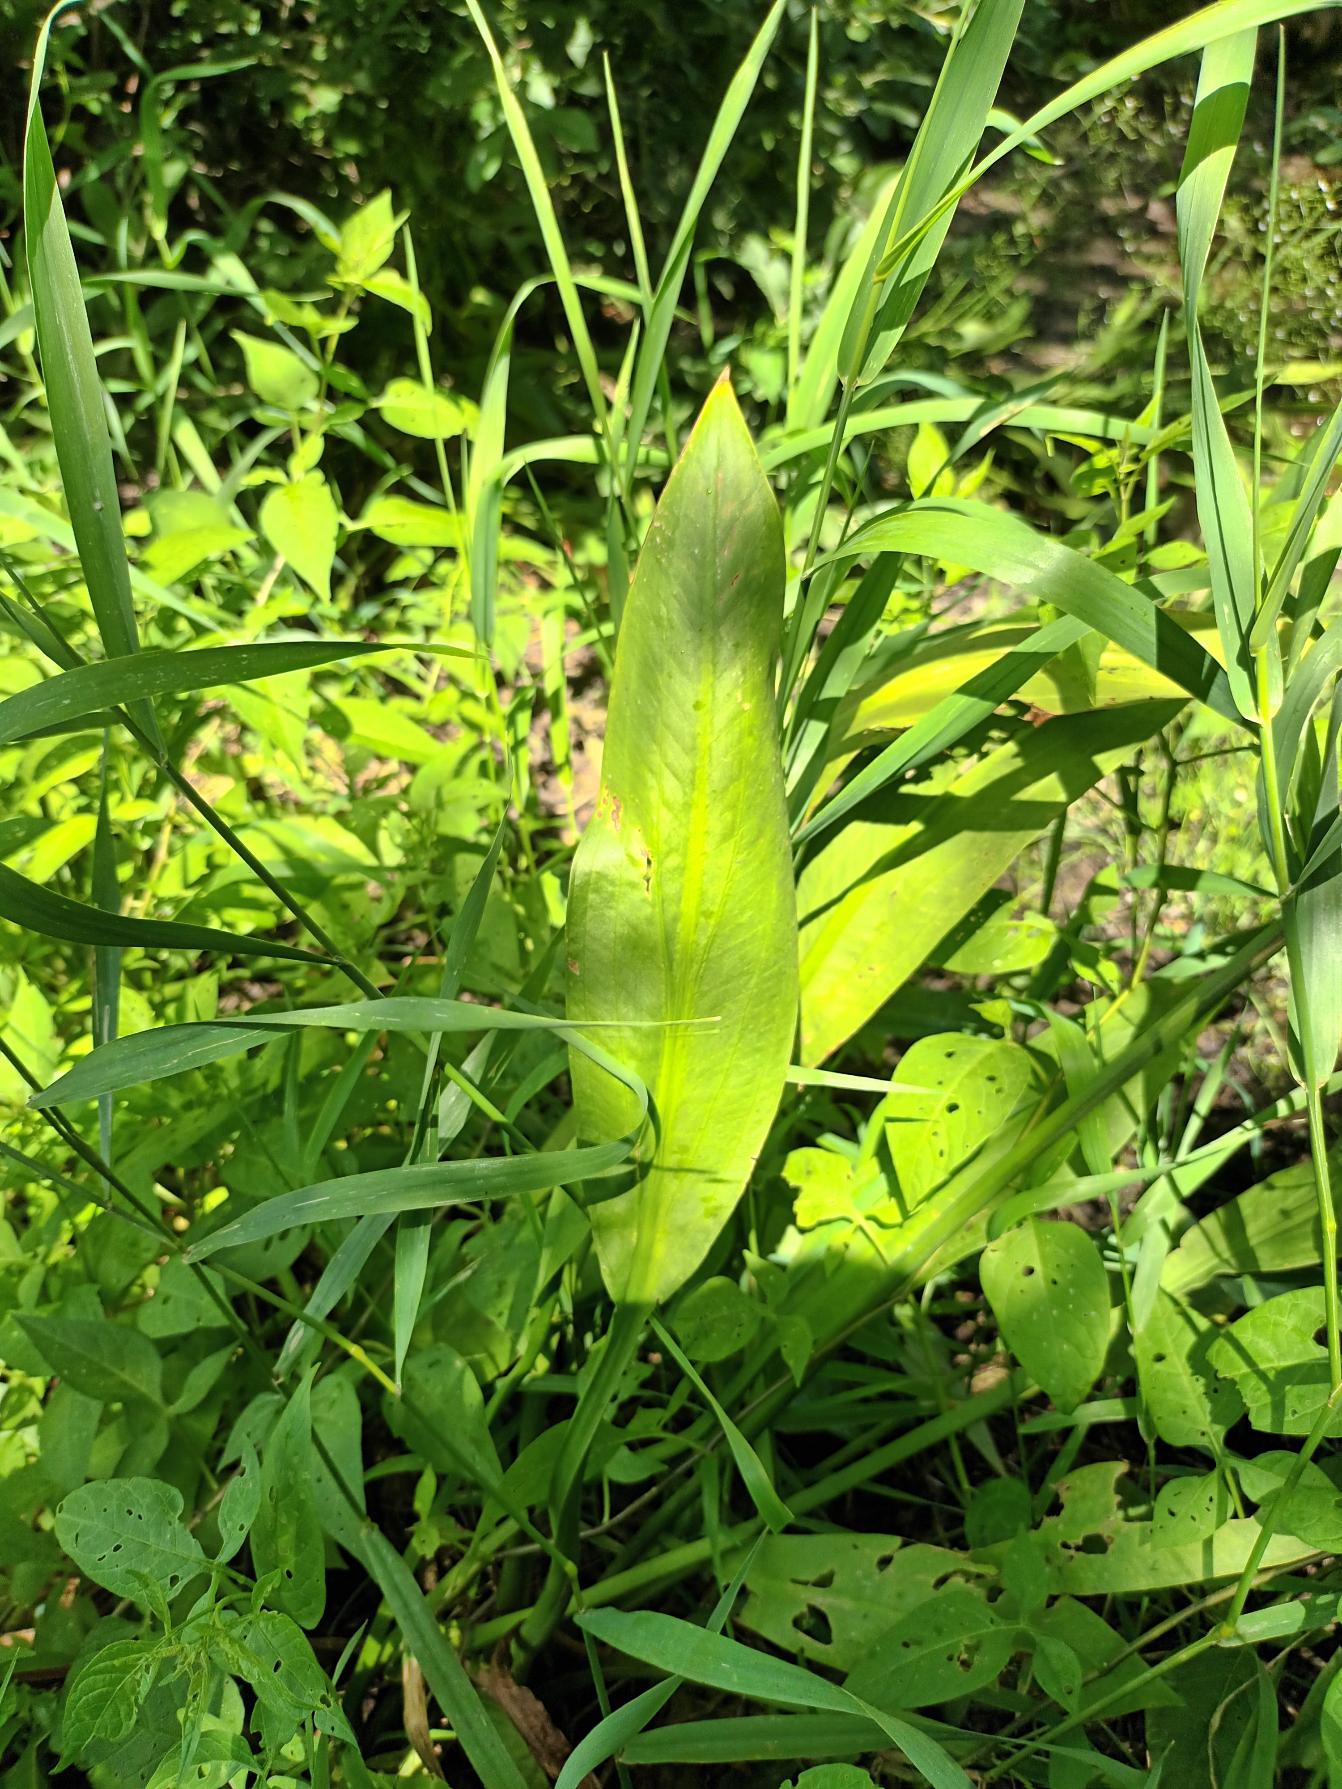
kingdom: Plantae
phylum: Tracheophyta
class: Liliopsida
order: Alismatales
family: Alismataceae
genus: Alisma
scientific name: Alisma lanceolatum
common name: Lancet-skeblad
